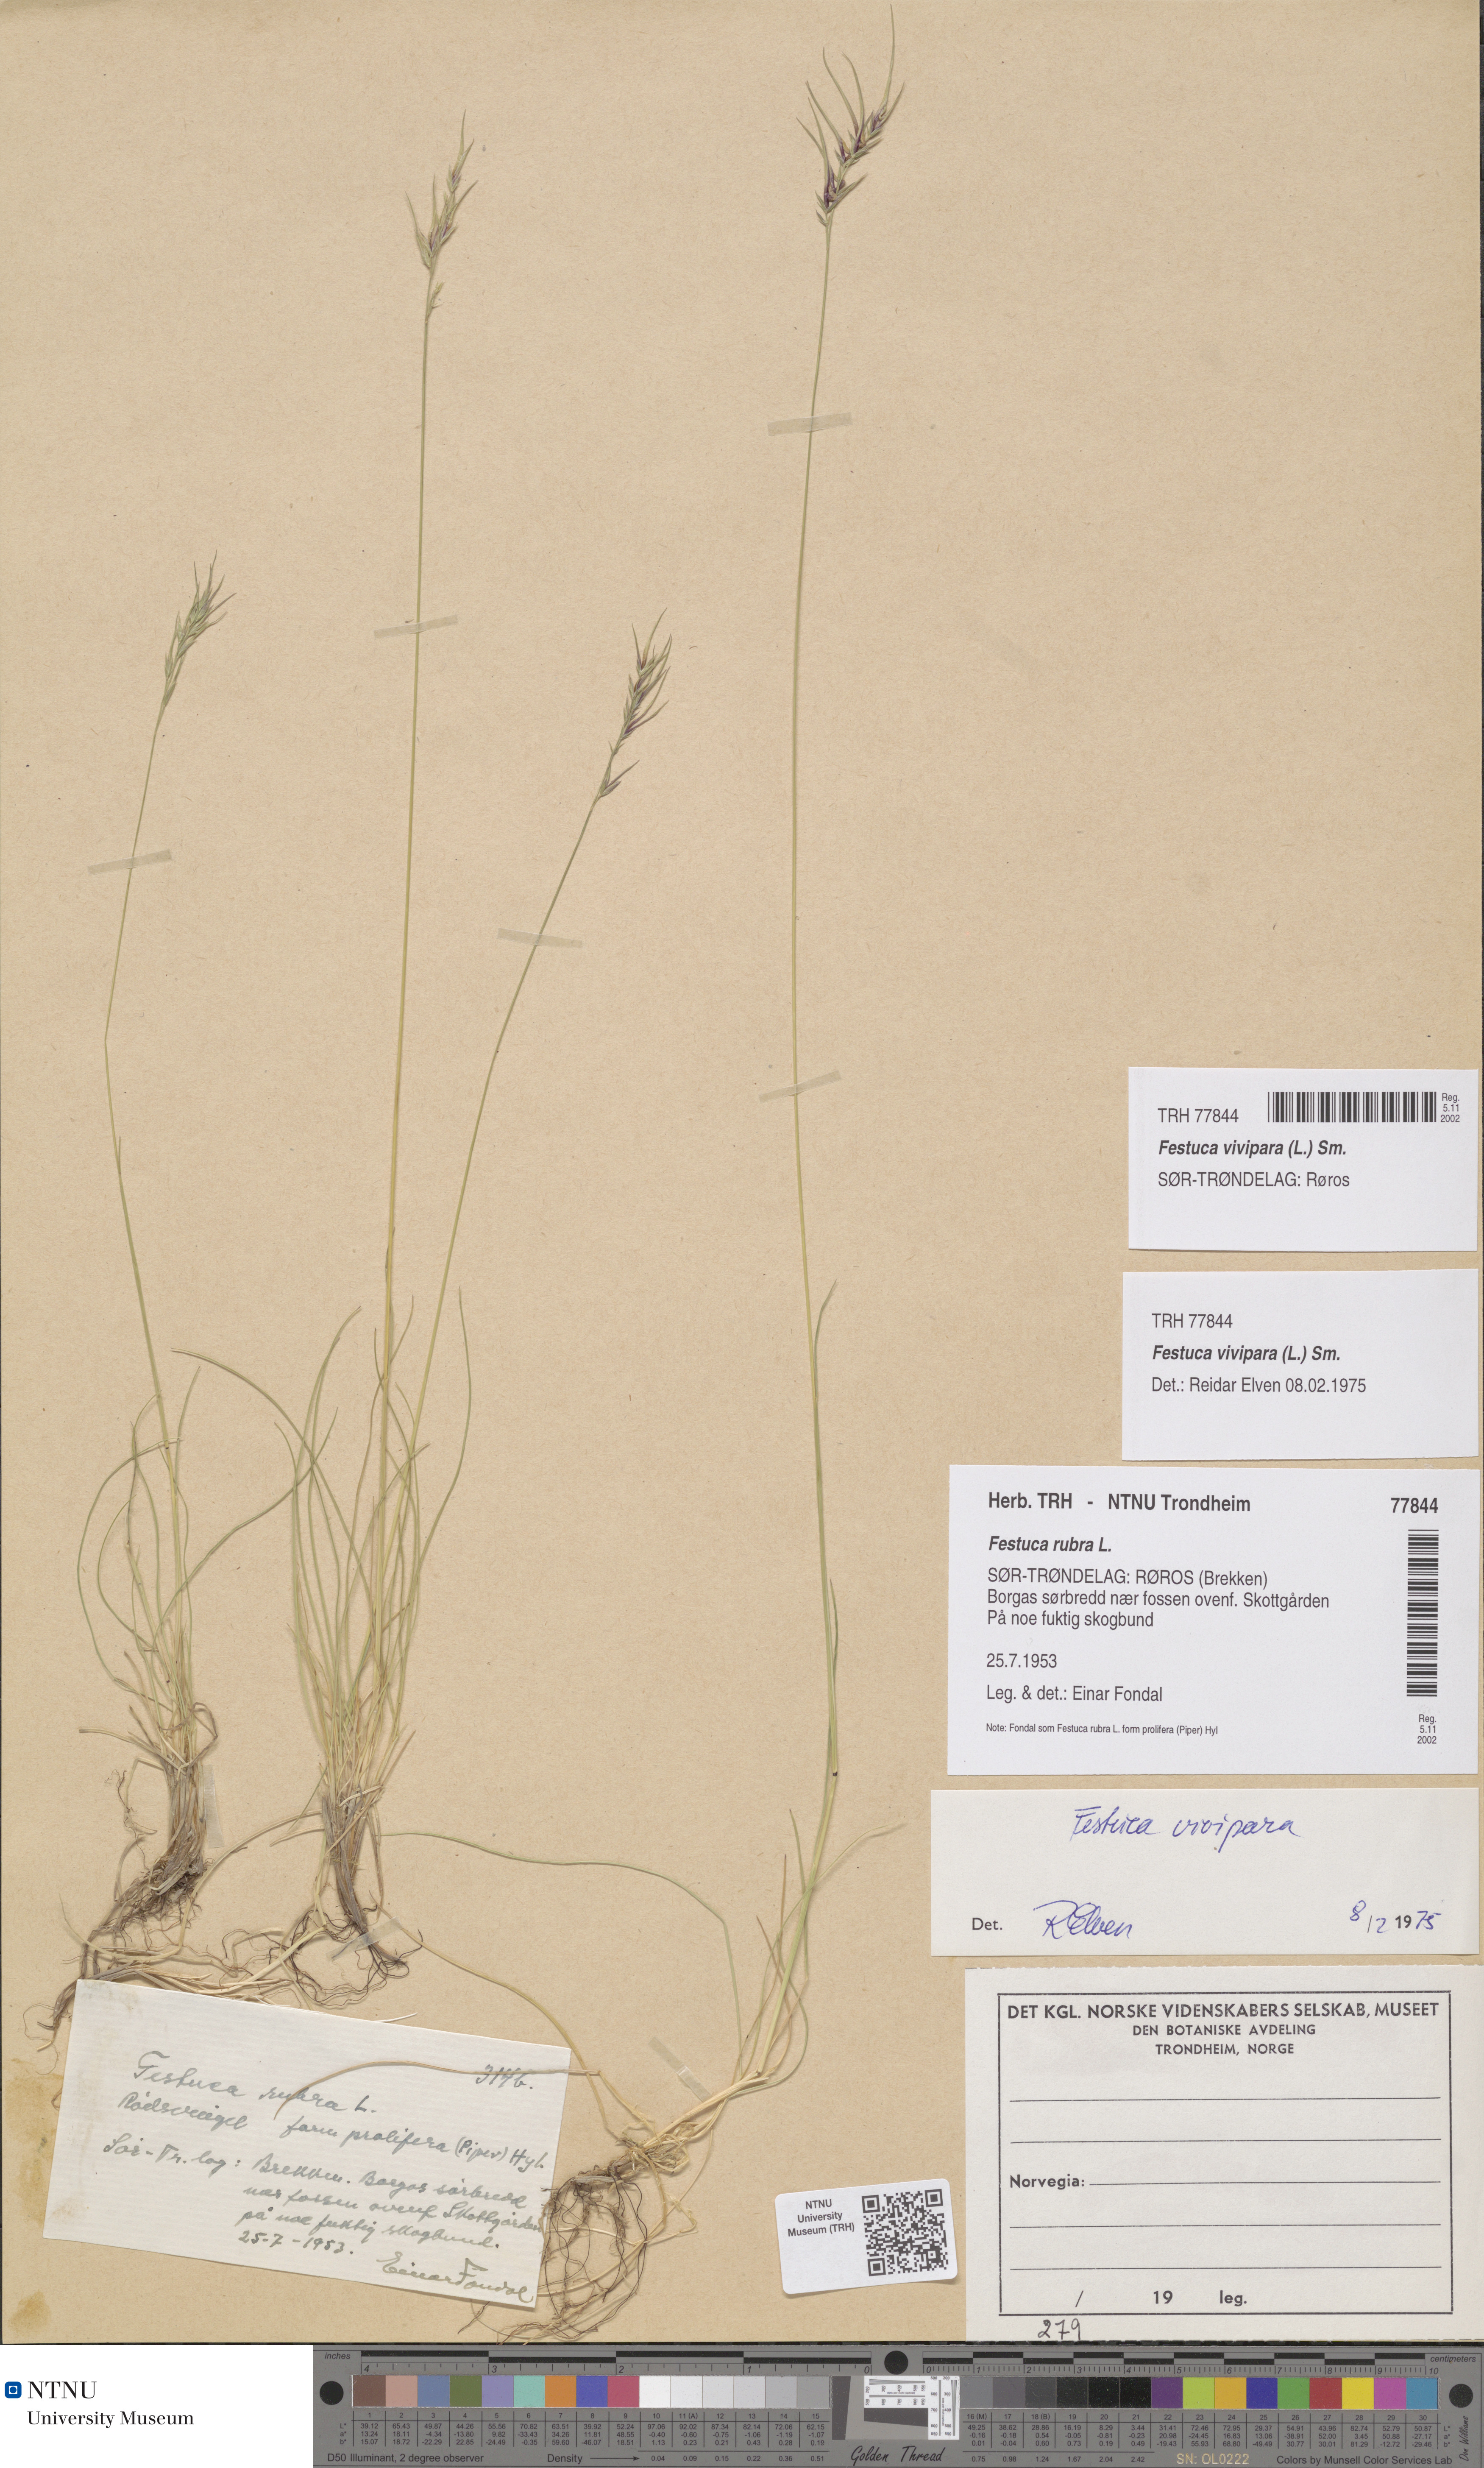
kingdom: Plantae
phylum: Tracheophyta
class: Liliopsida
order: Poales
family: Poaceae
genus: Festuca
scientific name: Festuca vivipara
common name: Viviparous sheep's-fescue
